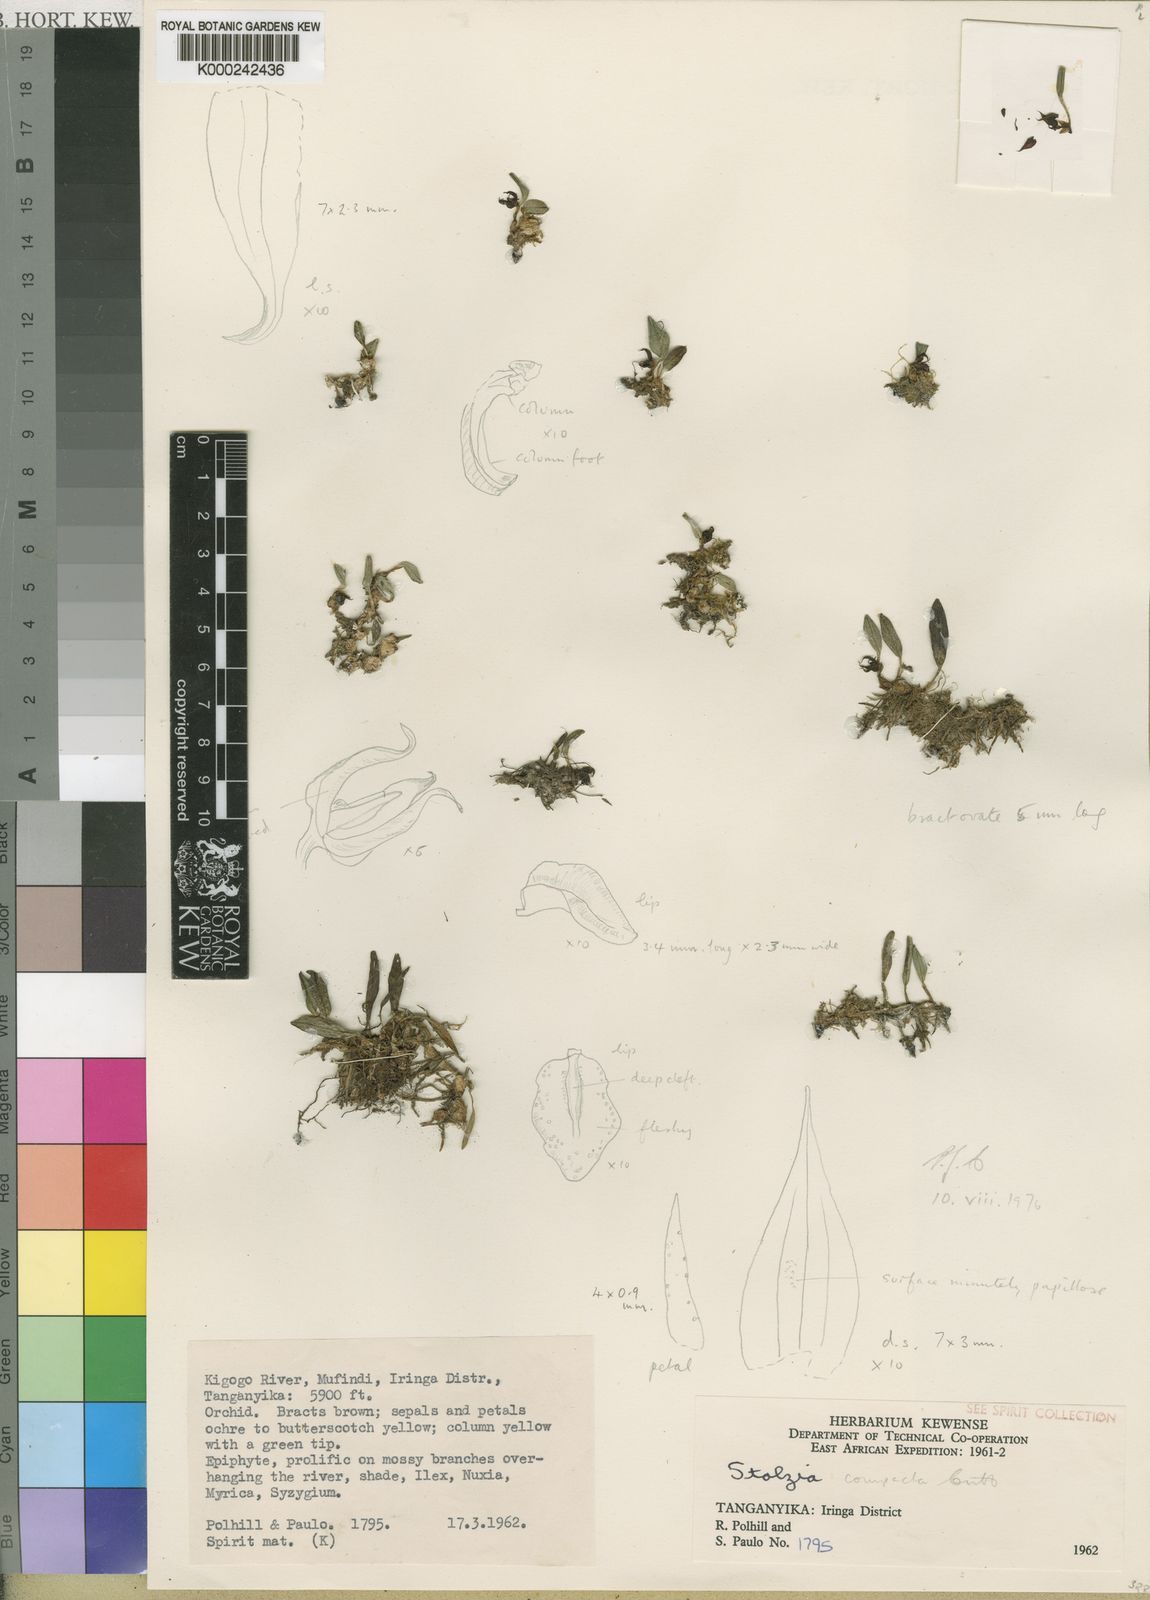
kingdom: Plantae
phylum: Tracheophyta
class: Liliopsida
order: Asparagales
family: Orchidaceae
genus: Porpax
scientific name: Porpax compacta
